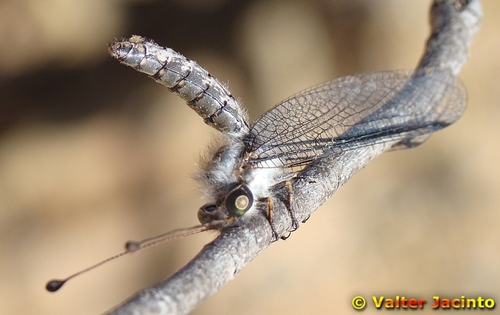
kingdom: Animalia
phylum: Arthropoda
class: Insecta
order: Neuroptera
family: Ascalaphidae
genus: Bubopsis
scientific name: Bubopsis agrionoides
